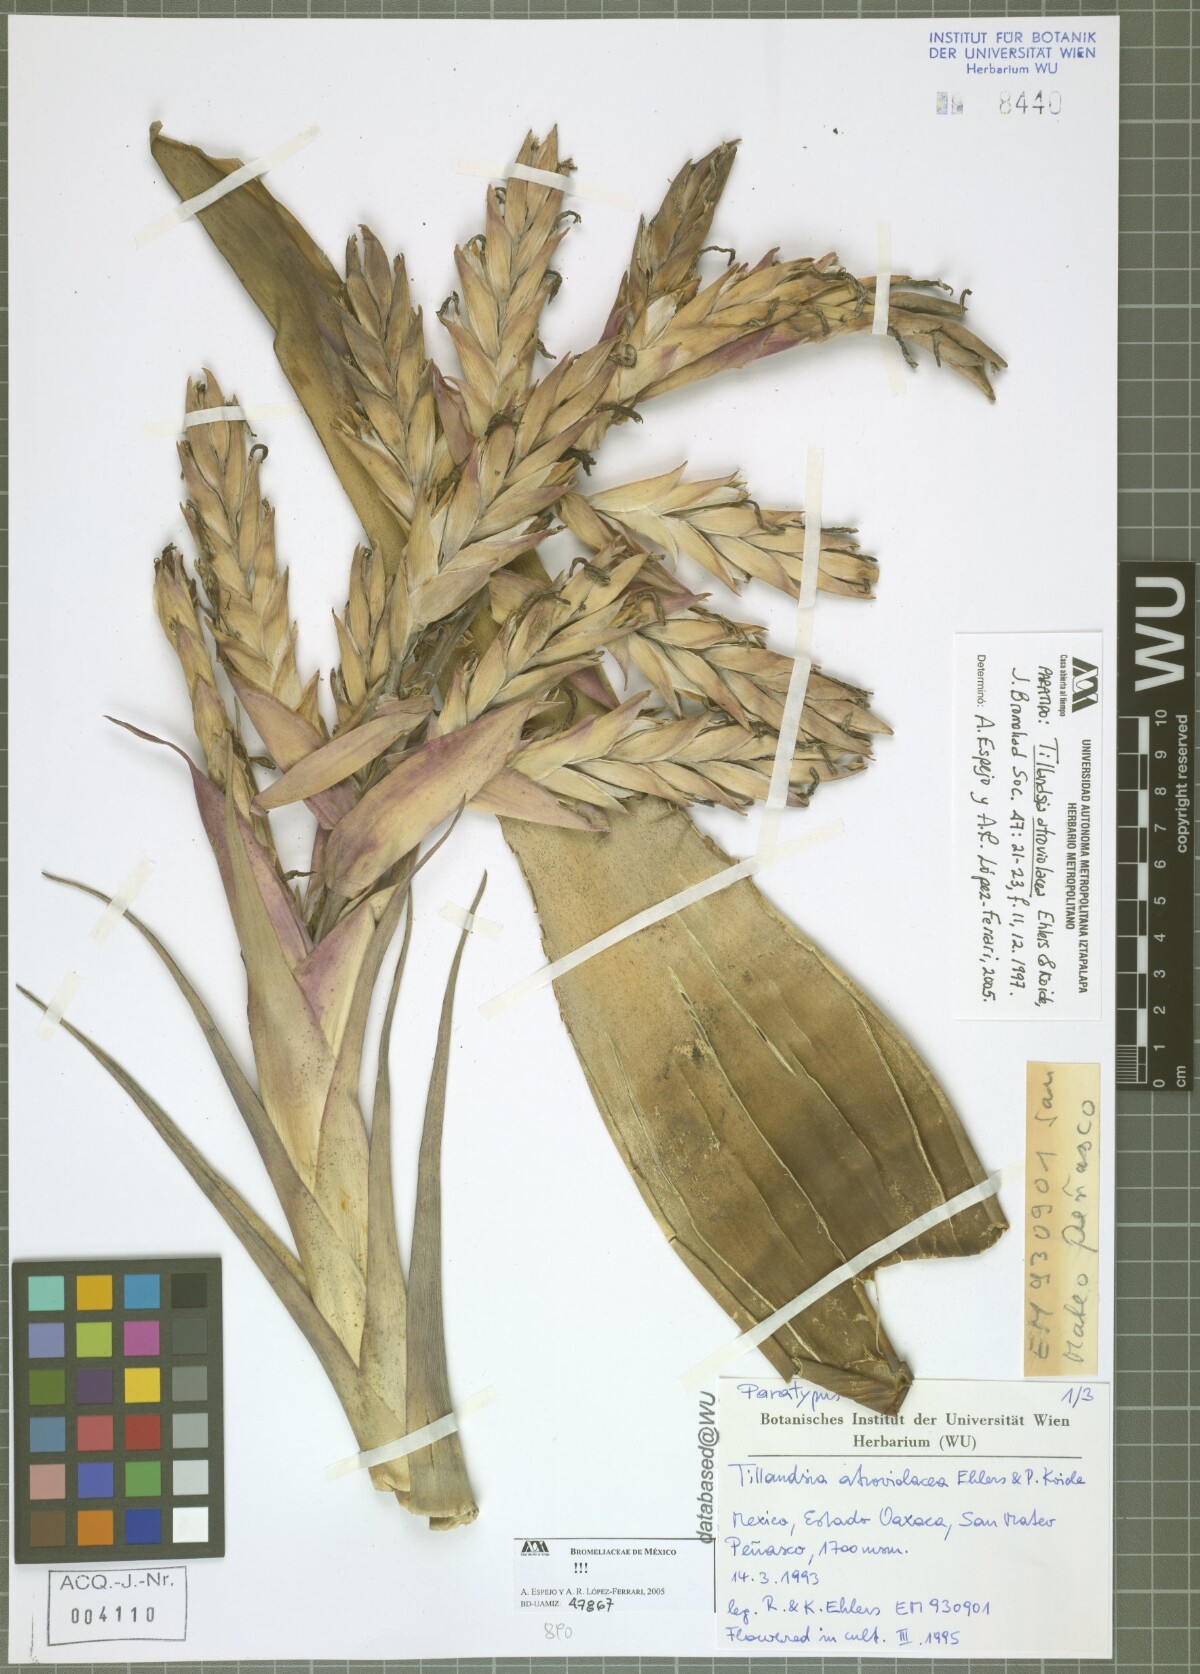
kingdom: Plantae
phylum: Tracheophyta
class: Liliopsida
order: Poales
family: Bromeliaceae
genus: Tillandsia
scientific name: Tillandsia atroviolacea
